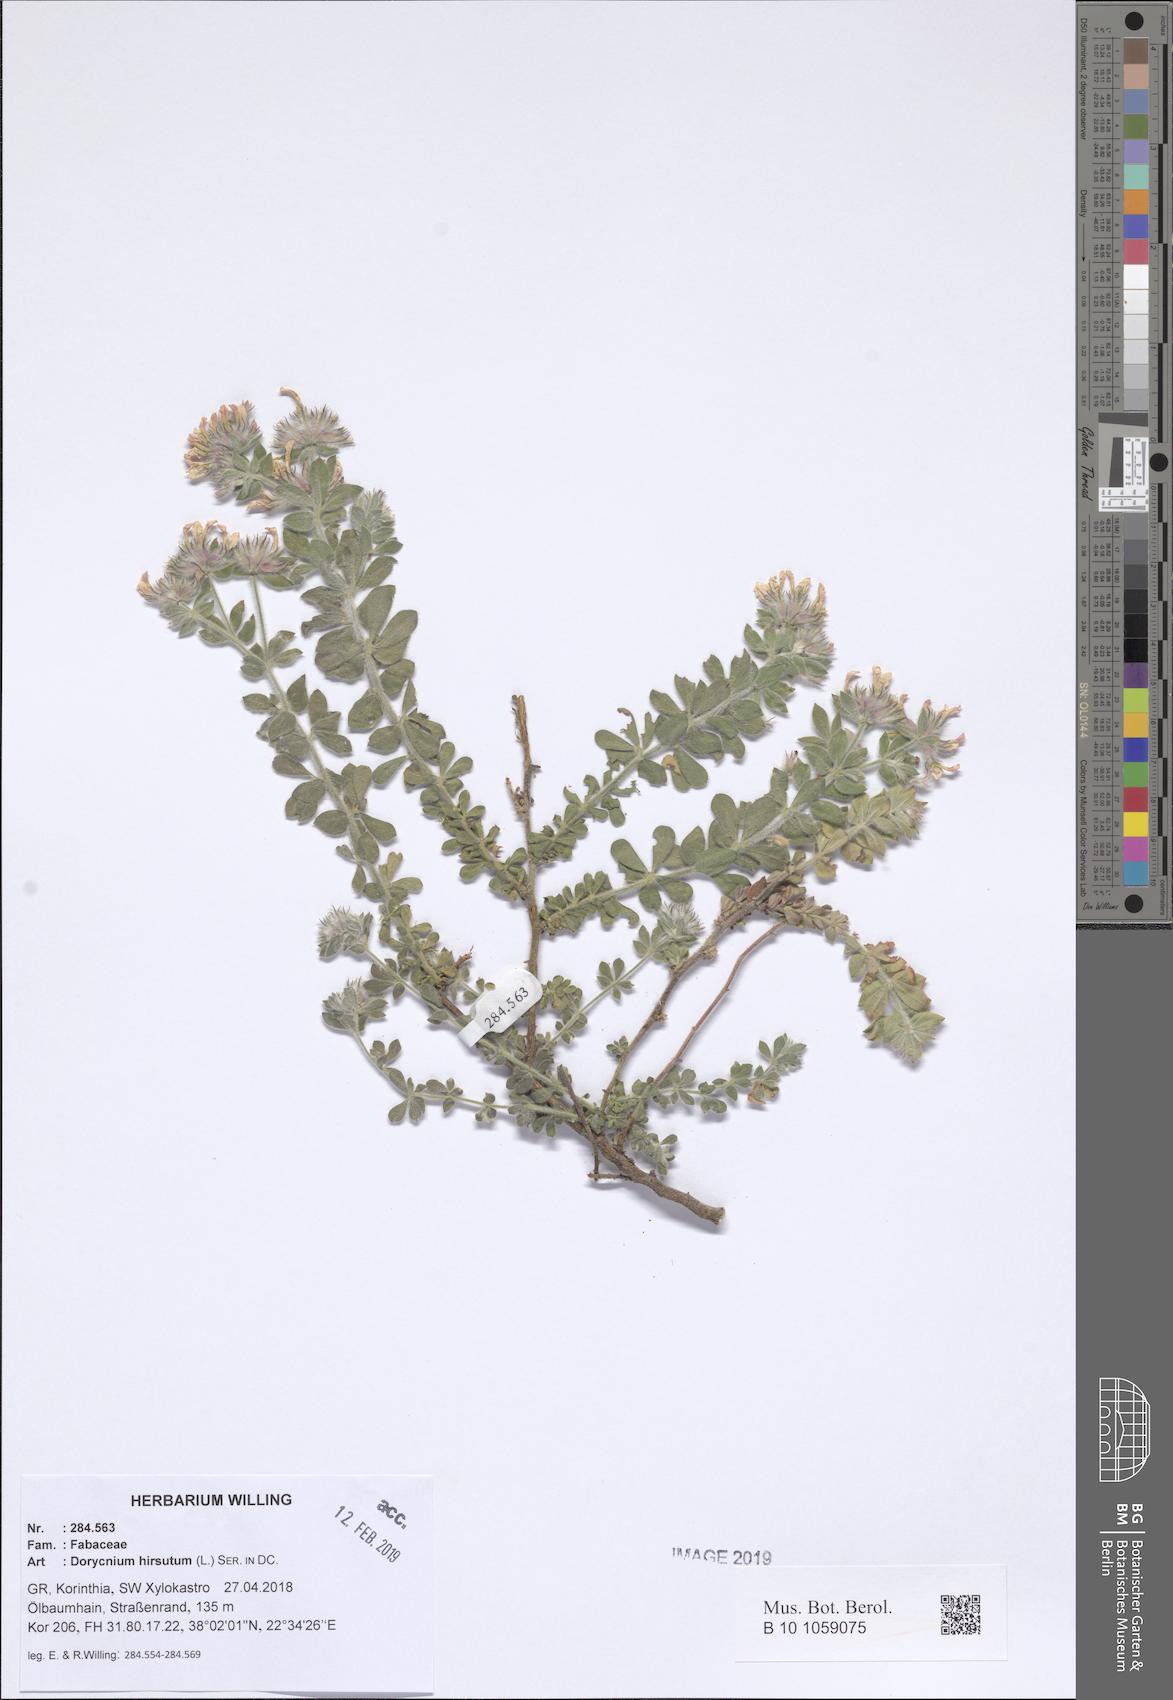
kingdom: Plantae
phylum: Tracheophyta
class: Magnoliopsida
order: Fabales
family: Fabaceae
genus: Lotus
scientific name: Lotus hirsutus
